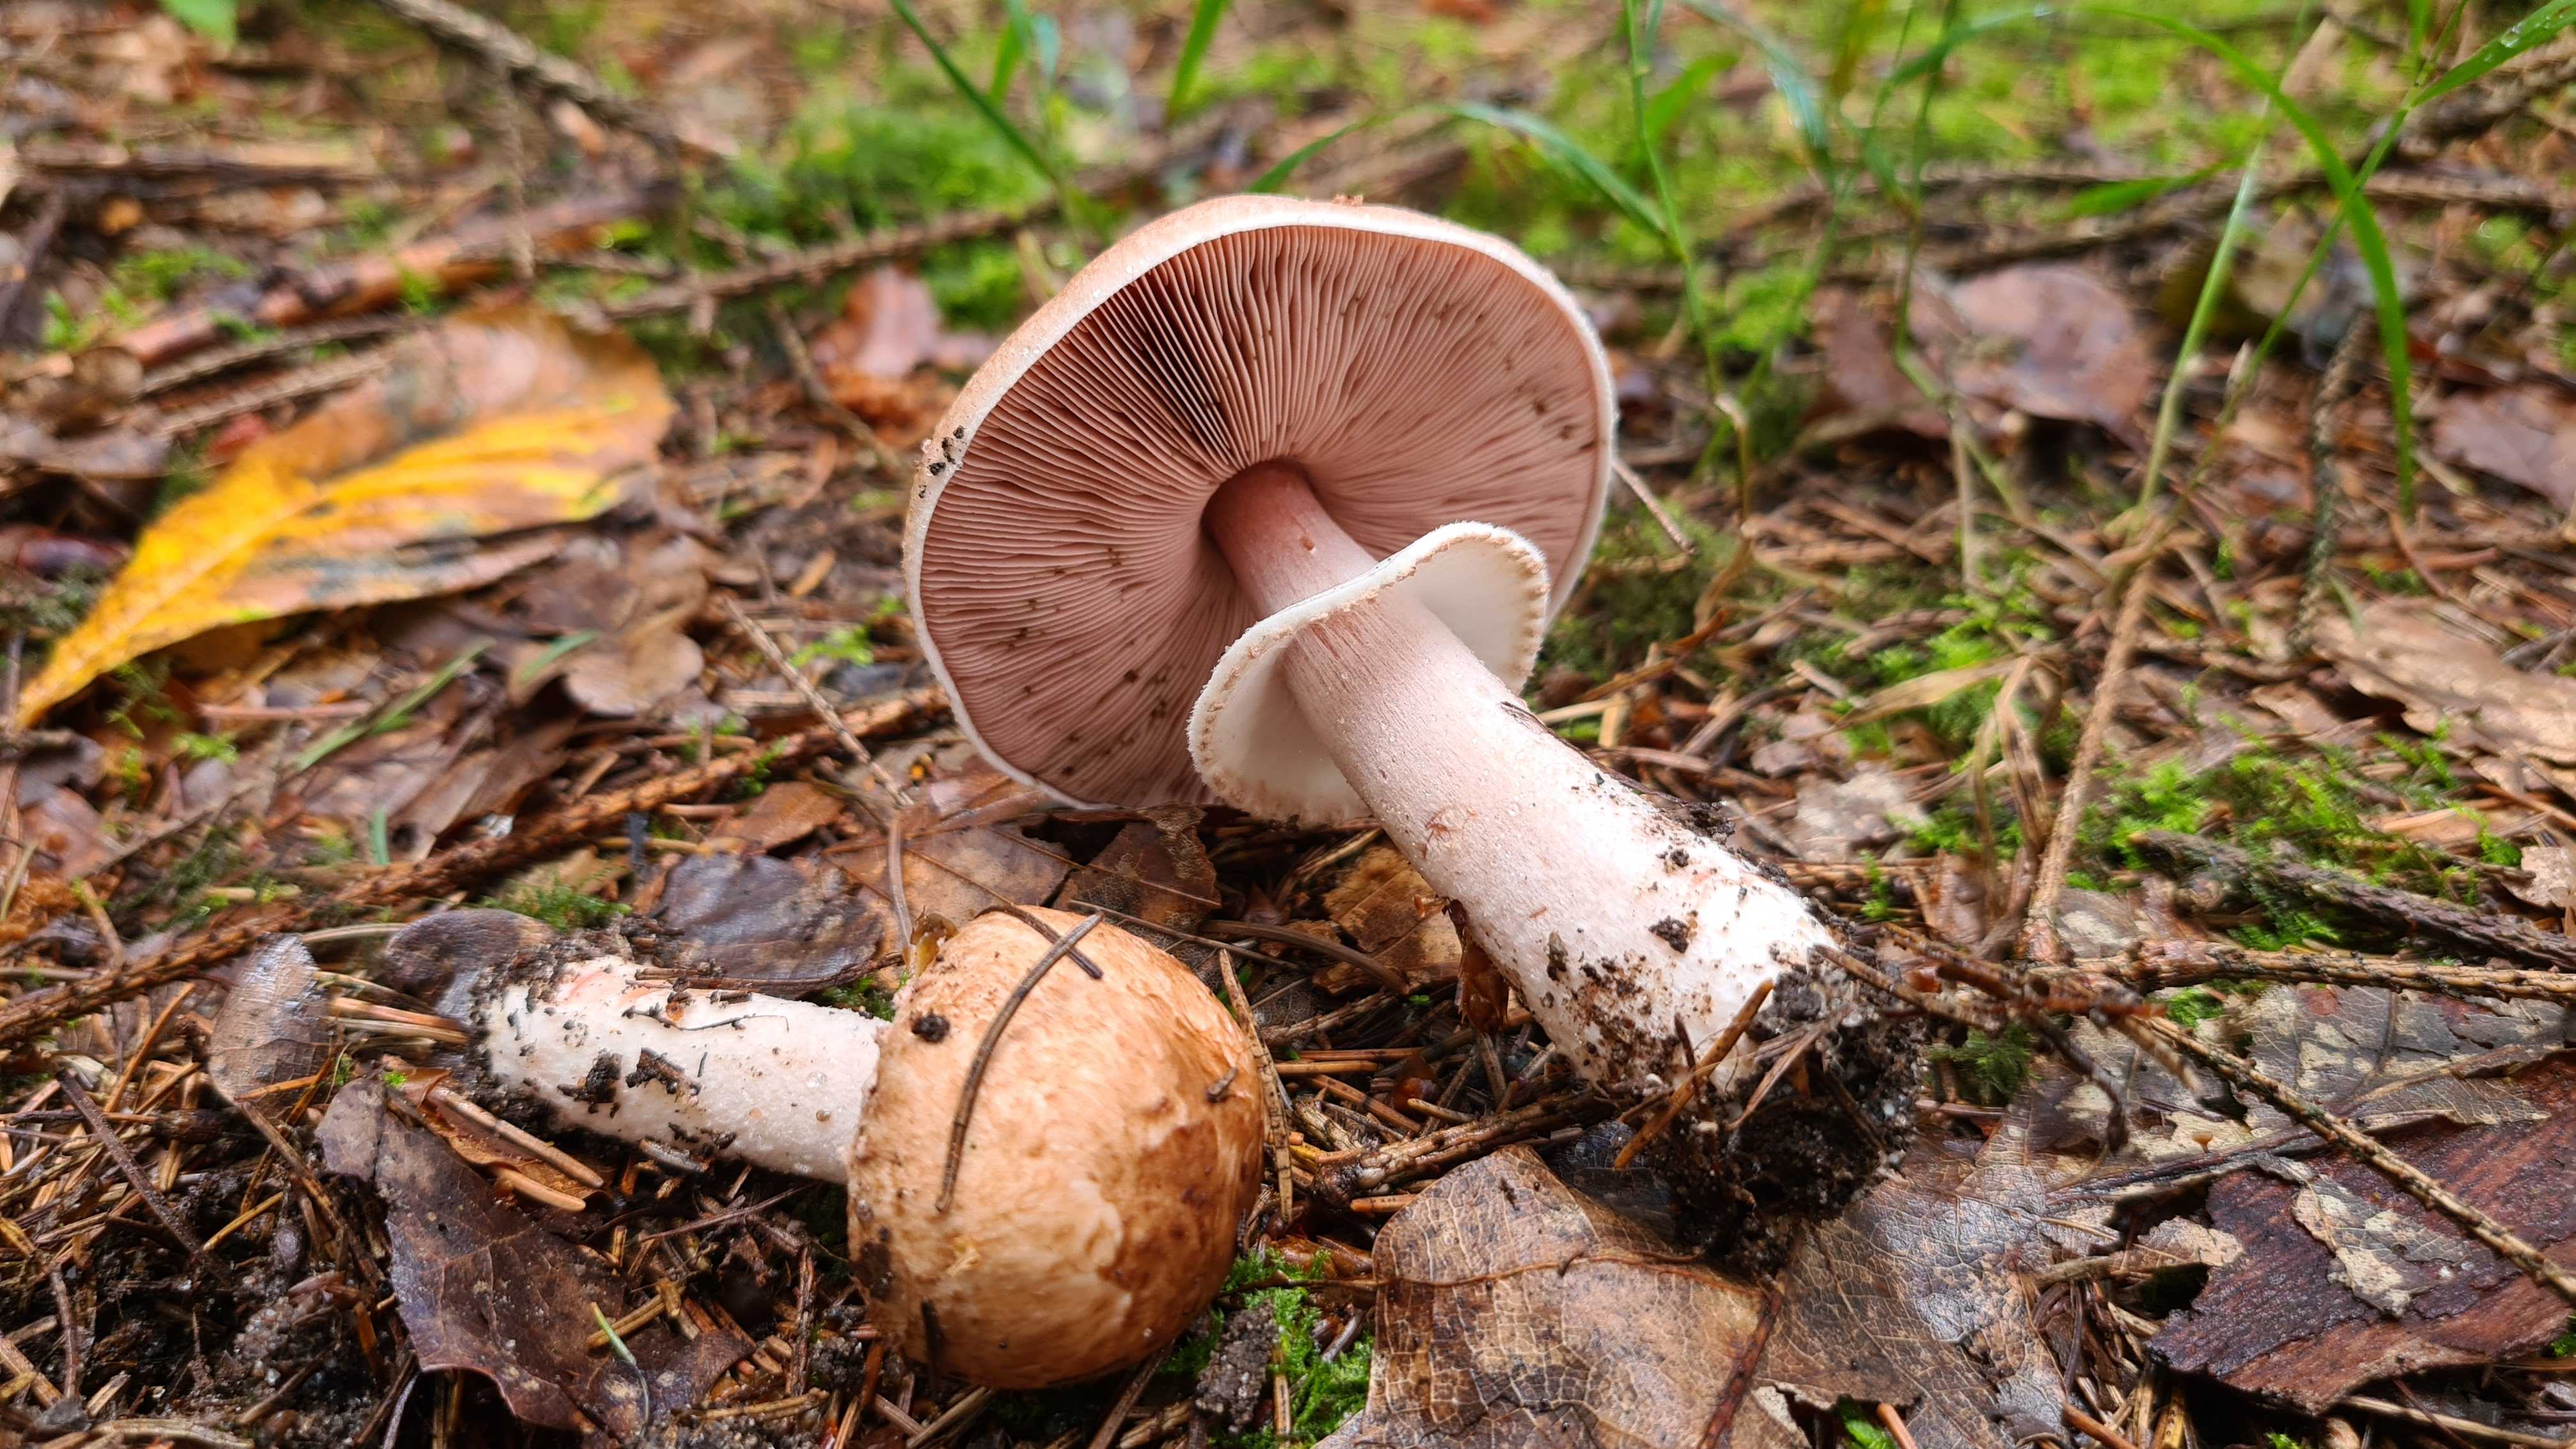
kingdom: Fungi
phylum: Basidiomycota
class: Agaricomycetes
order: Agaricales
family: Agaricaceae
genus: Agaricus
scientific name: Agaricus
